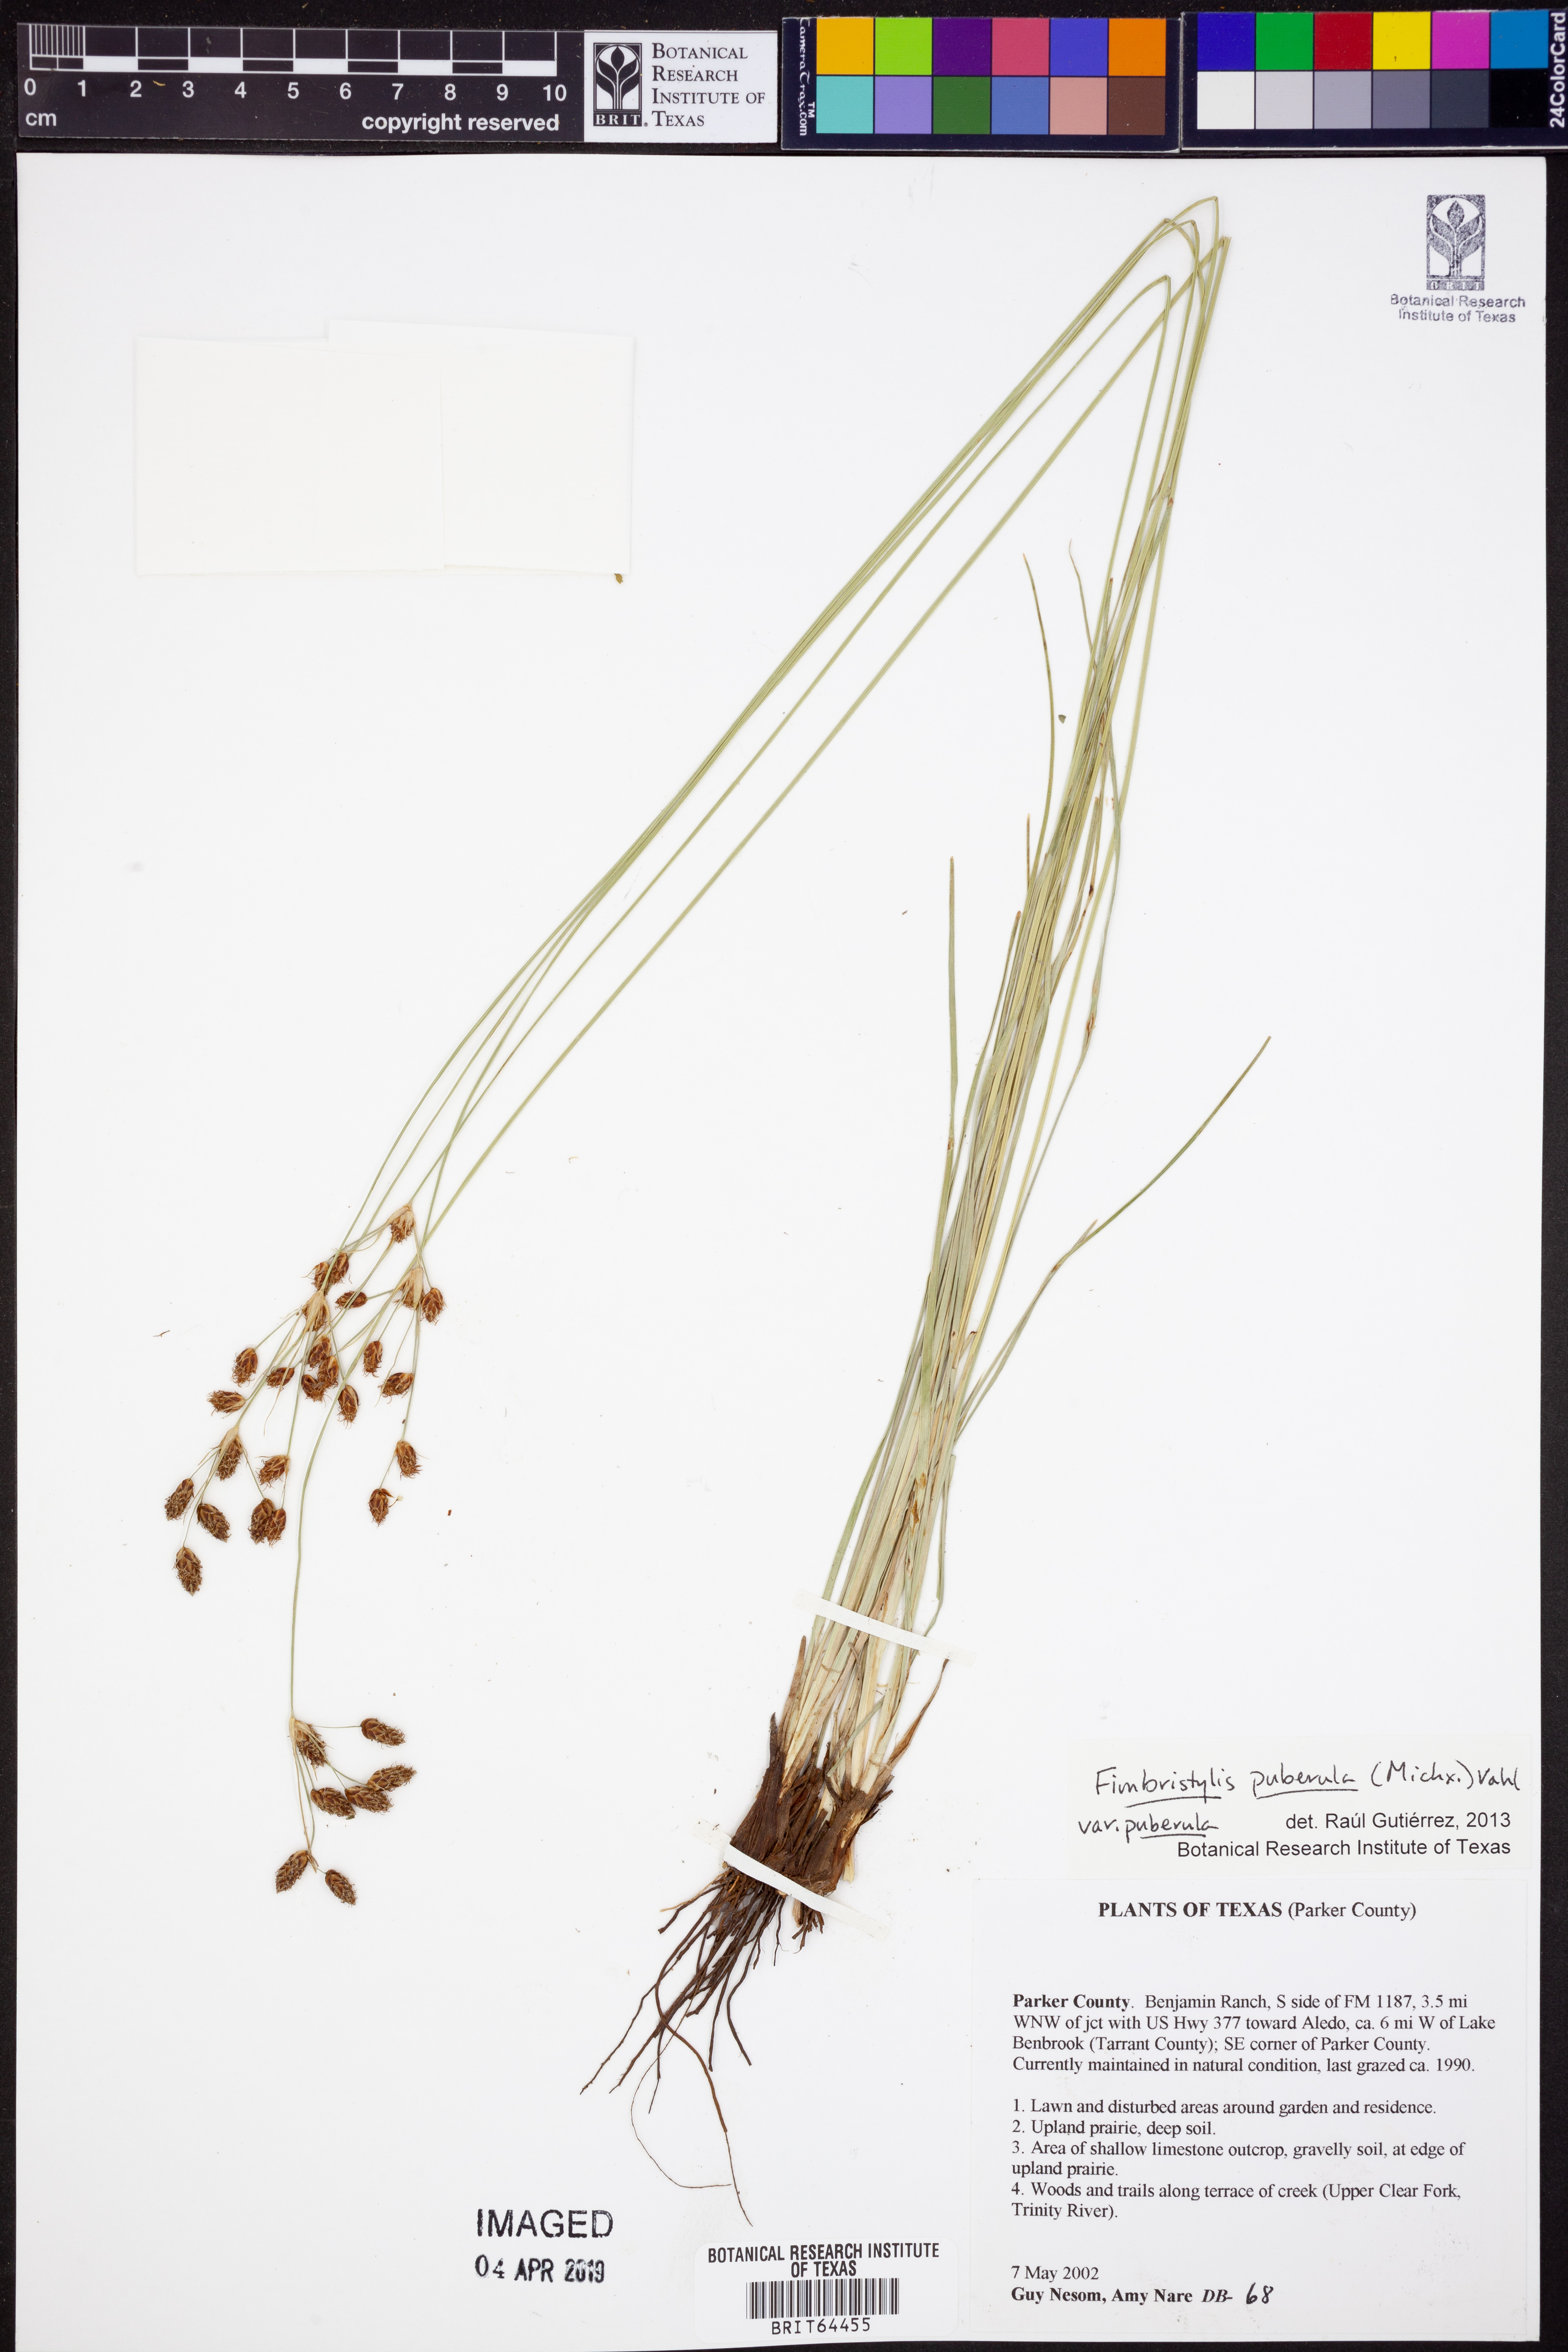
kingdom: Plantae
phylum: Tracheophyta
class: Liliopsida
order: Poales
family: Cyperaceae
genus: Fimbristylis
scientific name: Fimbristylis puberula
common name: Hairy fimbristylis
